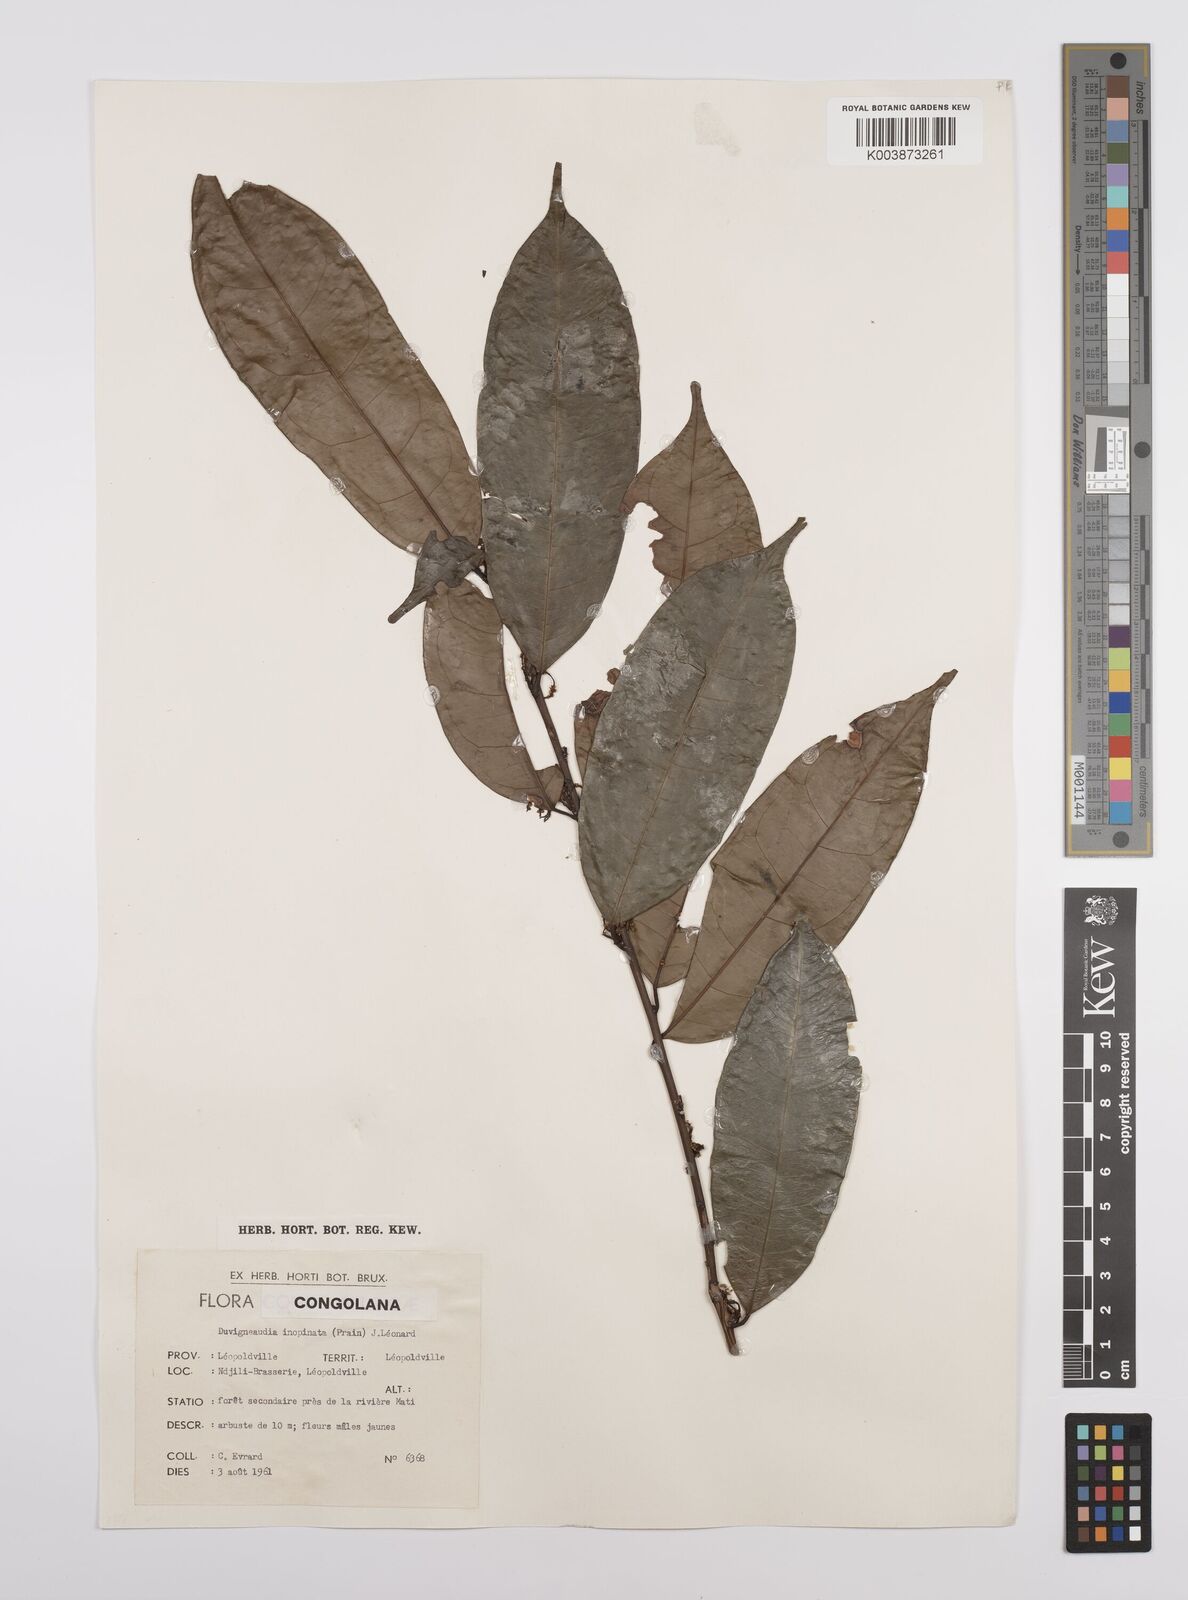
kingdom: Plantae
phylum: Tracheophyta
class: Magnoliopsida
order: Malpighiales
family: Euphorbiaceae
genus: Gymnanthes
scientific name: Gymnanthes
